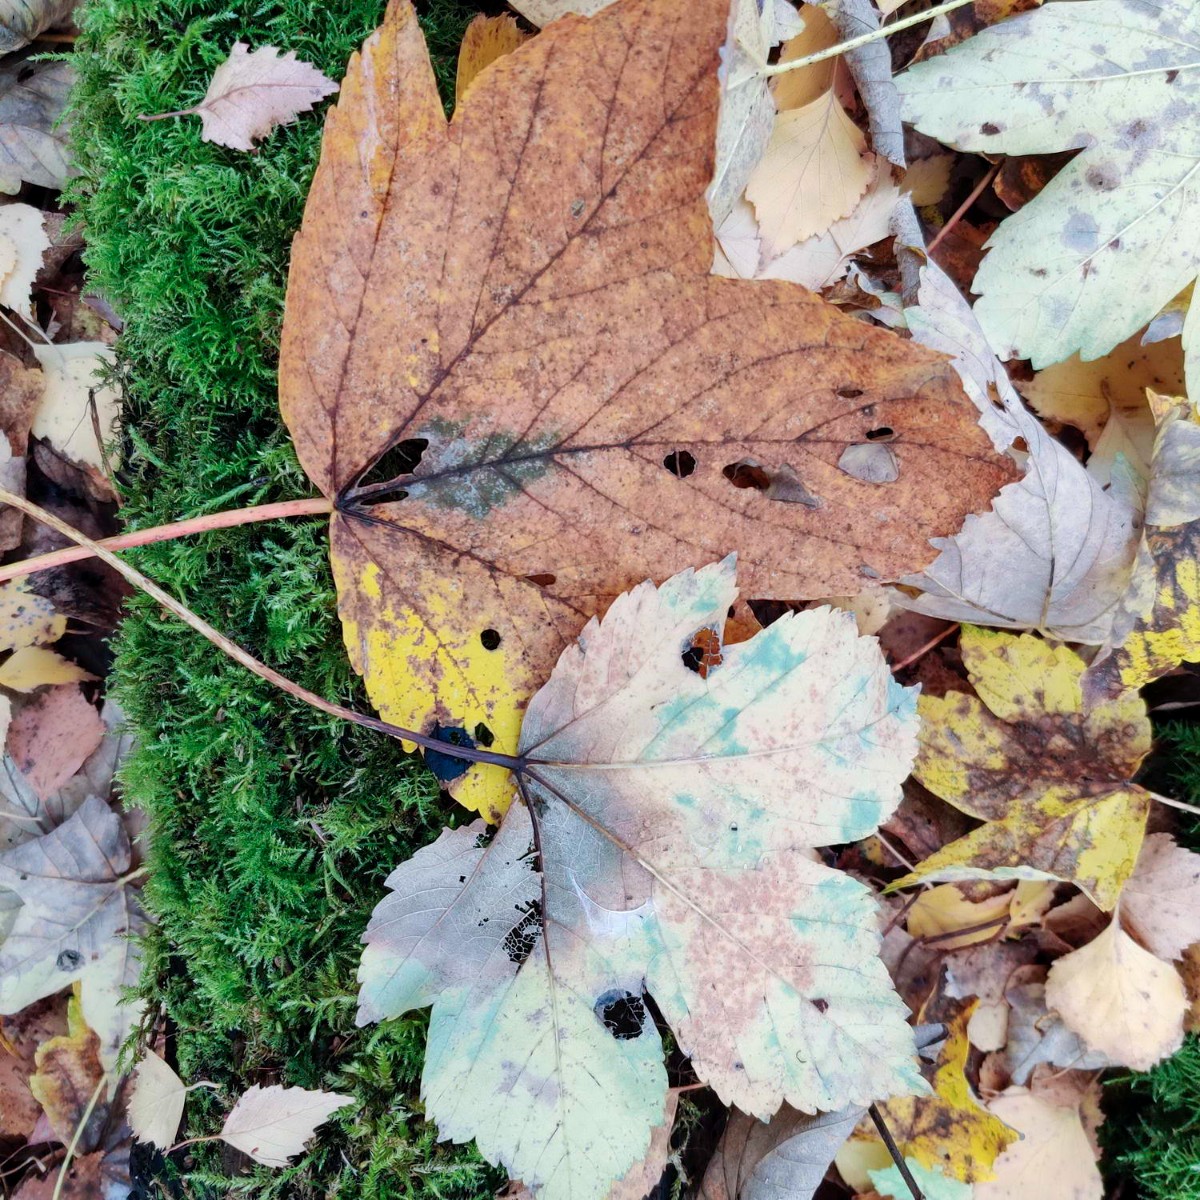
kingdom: Fungi
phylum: Ascomycota
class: Sordariomycetes
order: Diaporthales
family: Gnomoniaceae
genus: Pleuroceras
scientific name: Pleuroceras pseudoplatani
